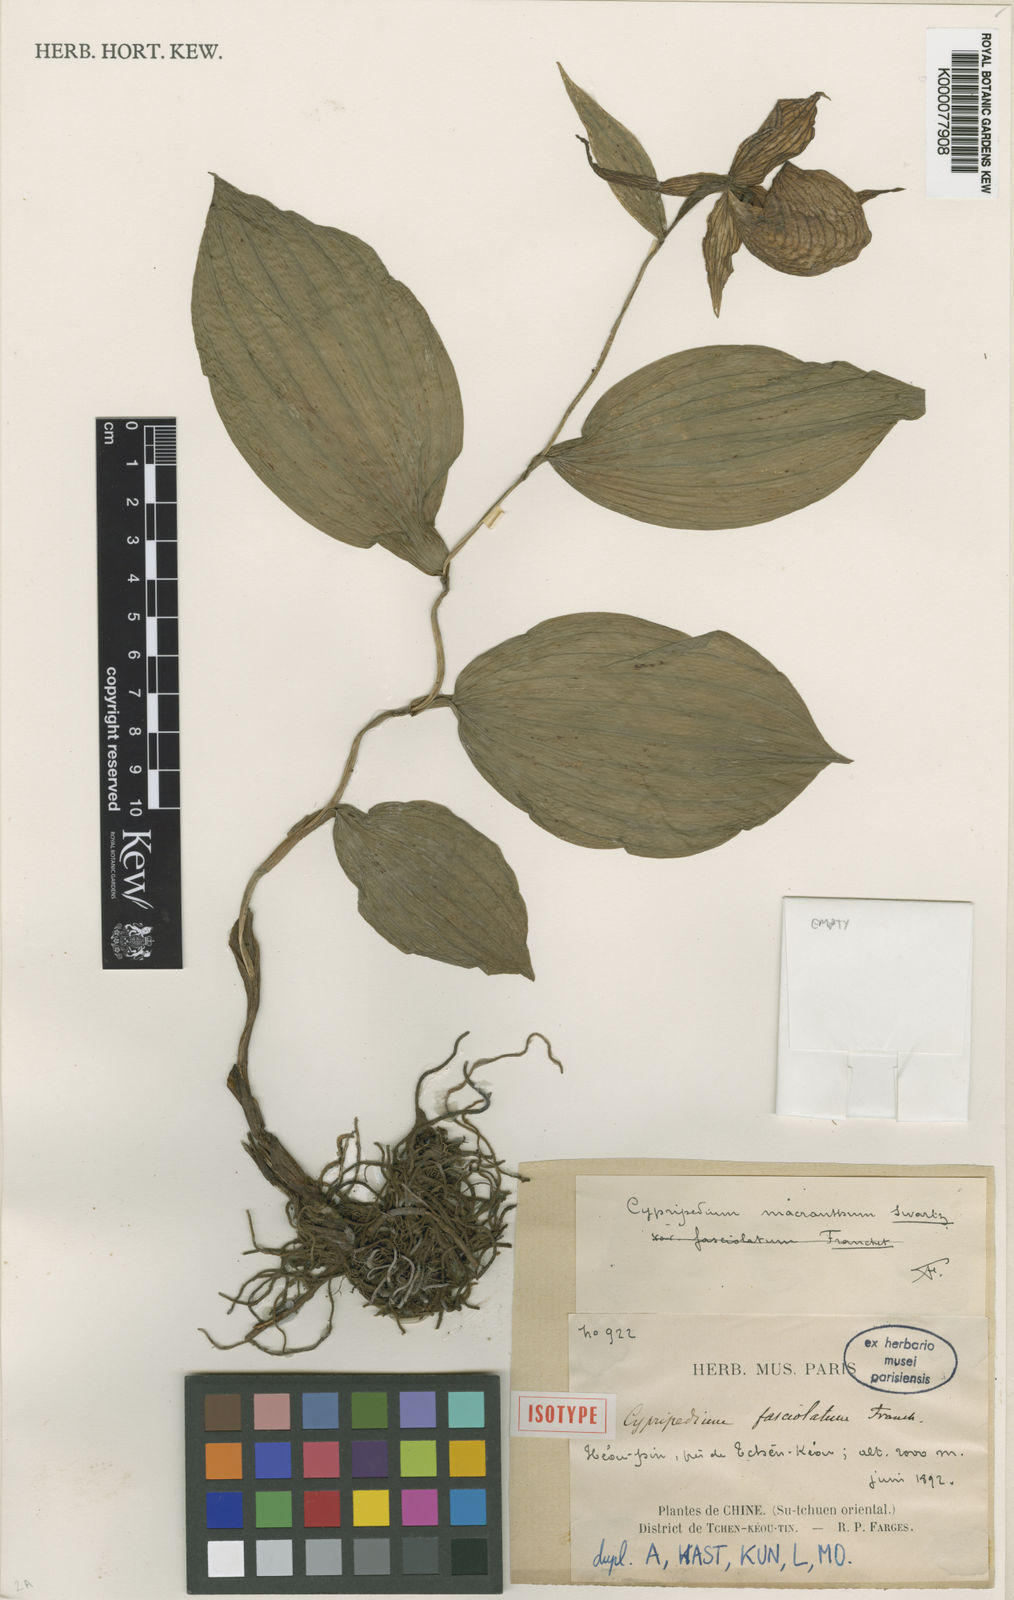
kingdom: Plantae
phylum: Tracheophyta
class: Liliopsida
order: Asparagales
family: Orchidaceae
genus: Cypripedium
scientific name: Cypripedium fasciolatum
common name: Striped lady slipper
